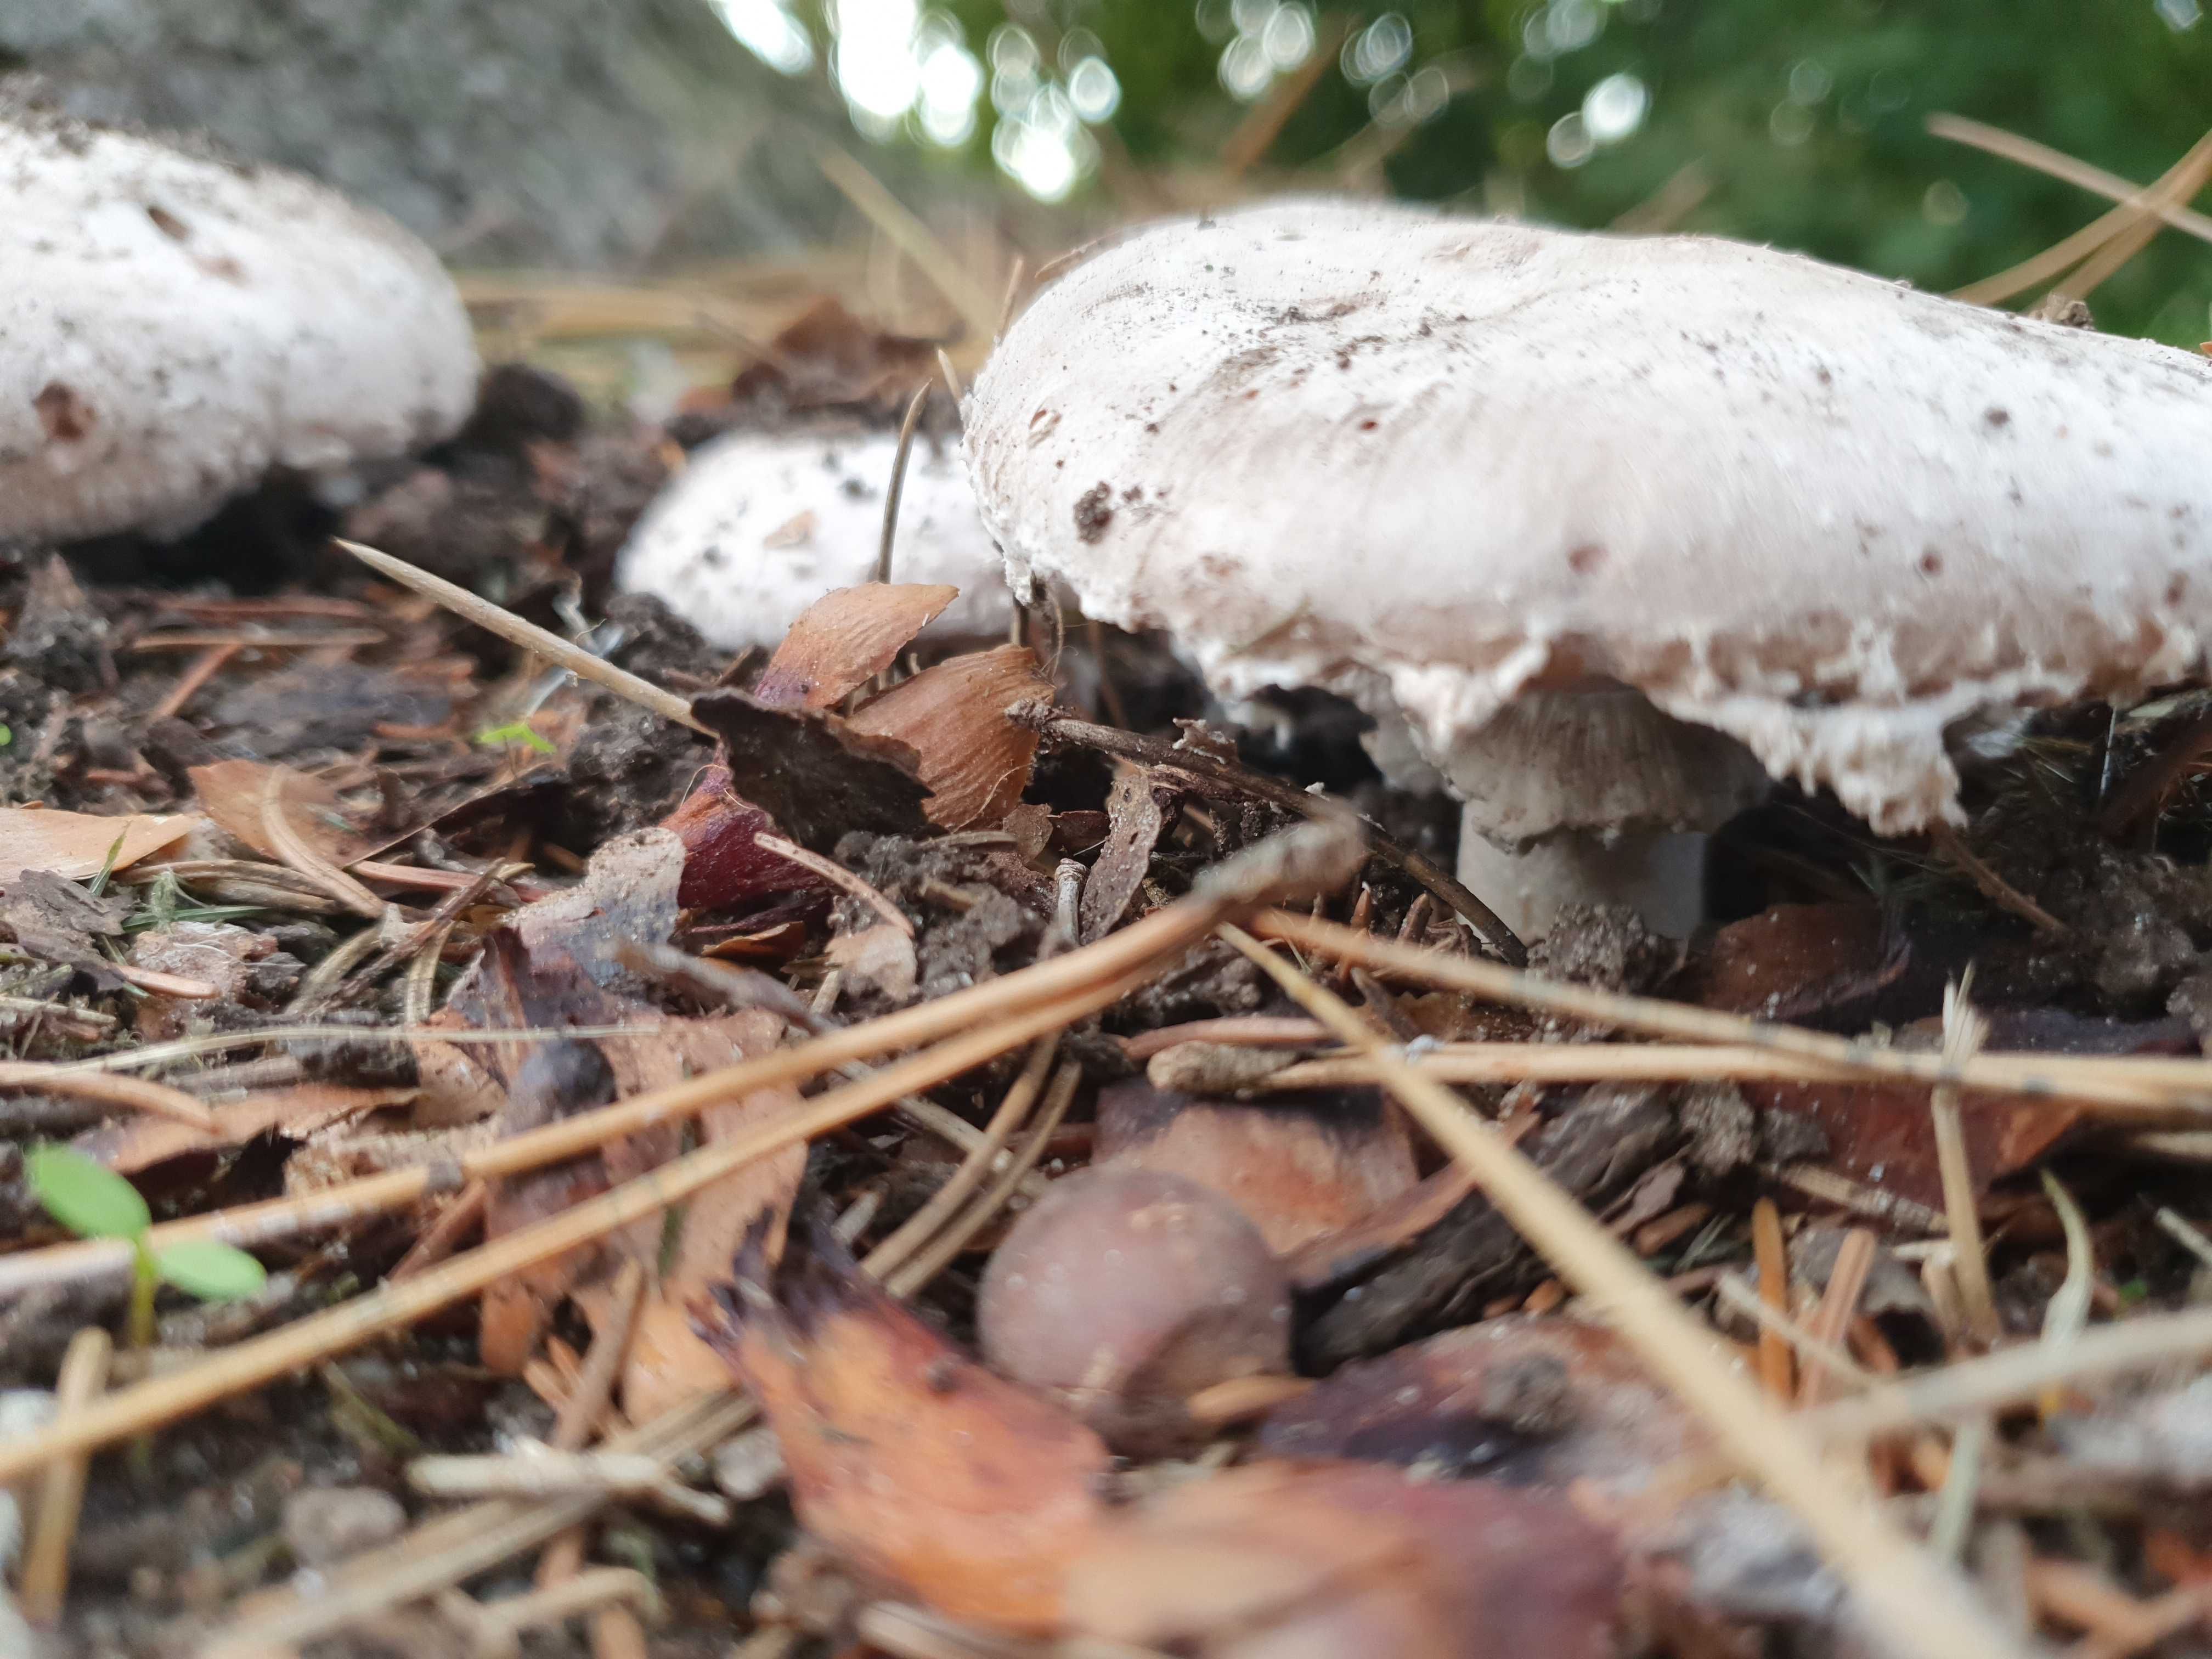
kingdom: Fungi
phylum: Basidiomycota
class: Agaricomycetes
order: Agaricales
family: Agaricaceae
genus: Agaricus
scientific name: Agaricus
